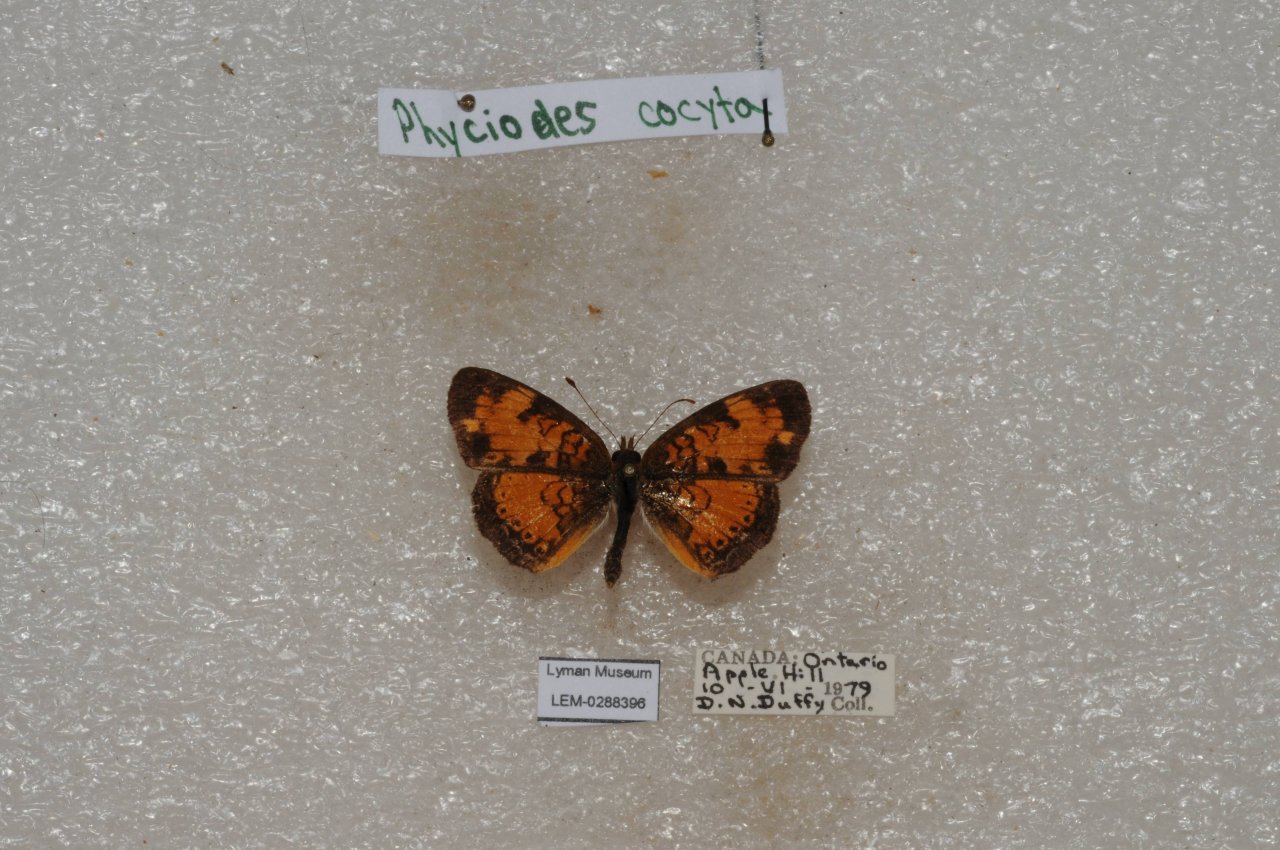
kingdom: Animalia
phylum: Arthropoda
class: Insecta
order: Lepidoptera
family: Nymphalidae
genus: Phyciodes
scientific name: Phyciodes tharos
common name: Northern Crescent
